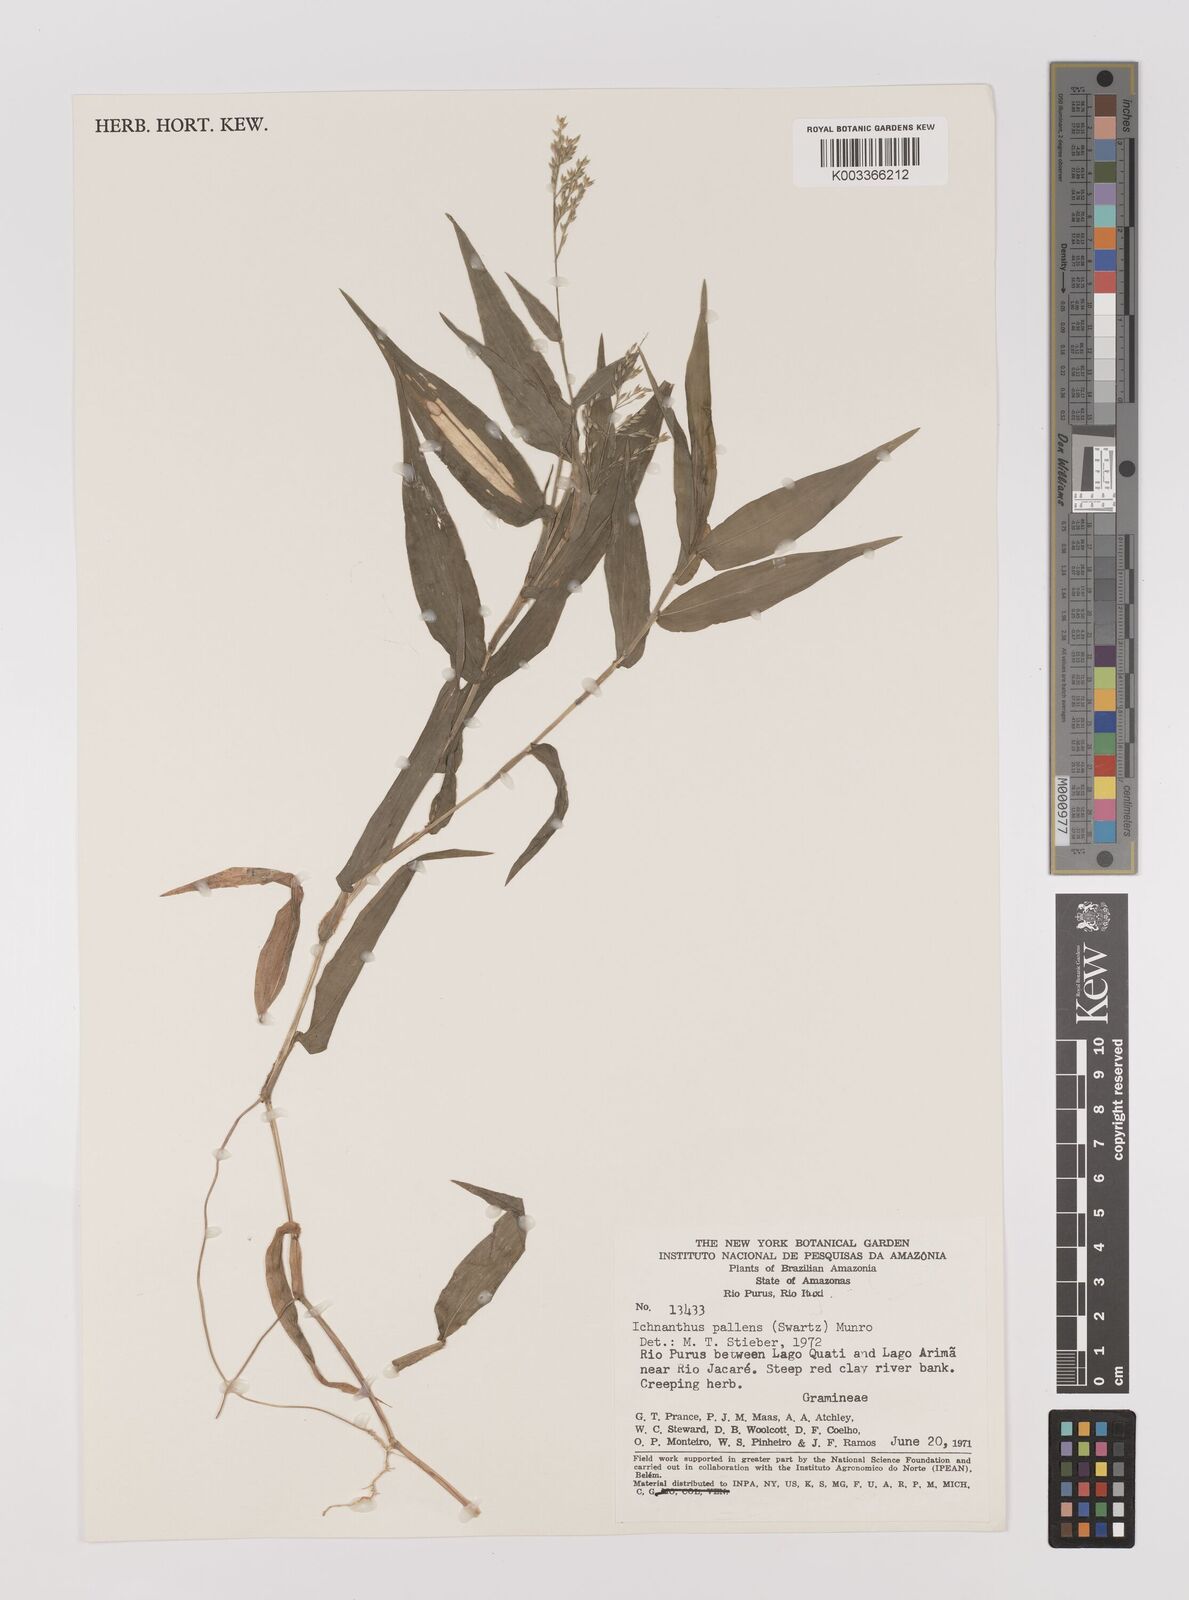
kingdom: Plantae
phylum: Tracheophyta
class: Liliopsida
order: Poales
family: Poaceae
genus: Ichnanthus
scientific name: Ichnanthus pallens
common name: Water grass
